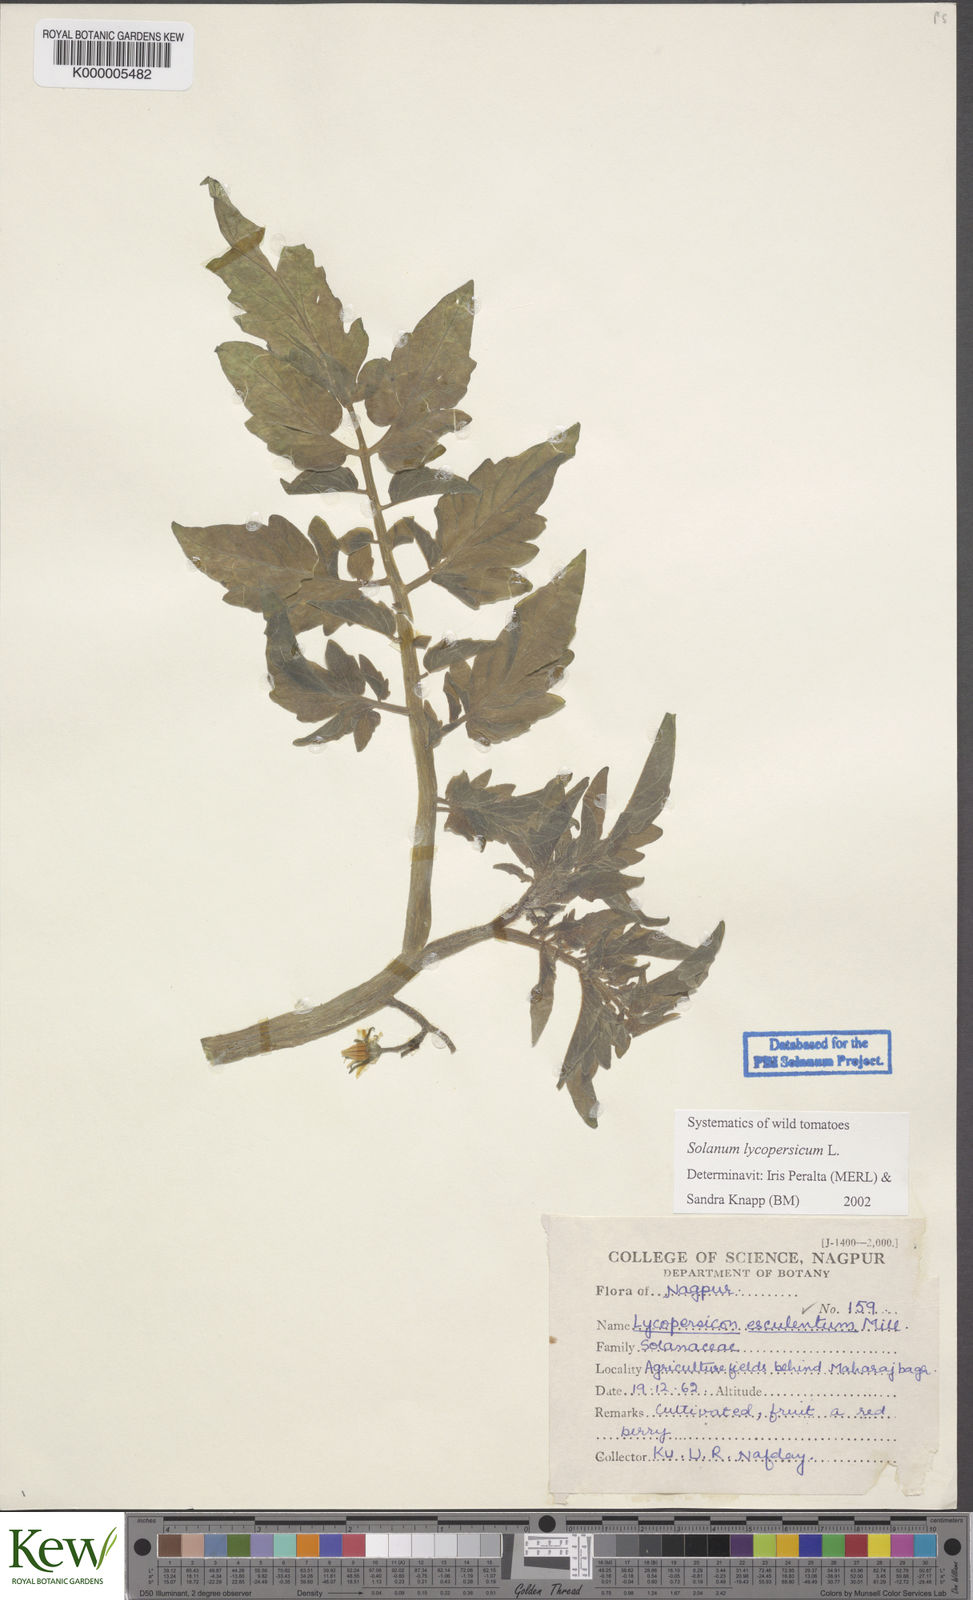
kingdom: Plantae
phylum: Tracheophyta
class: Magnoliopsida
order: Solanales
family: Solanaceae
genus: Solanum
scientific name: Solanum lycopersicum
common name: Garden tomato
